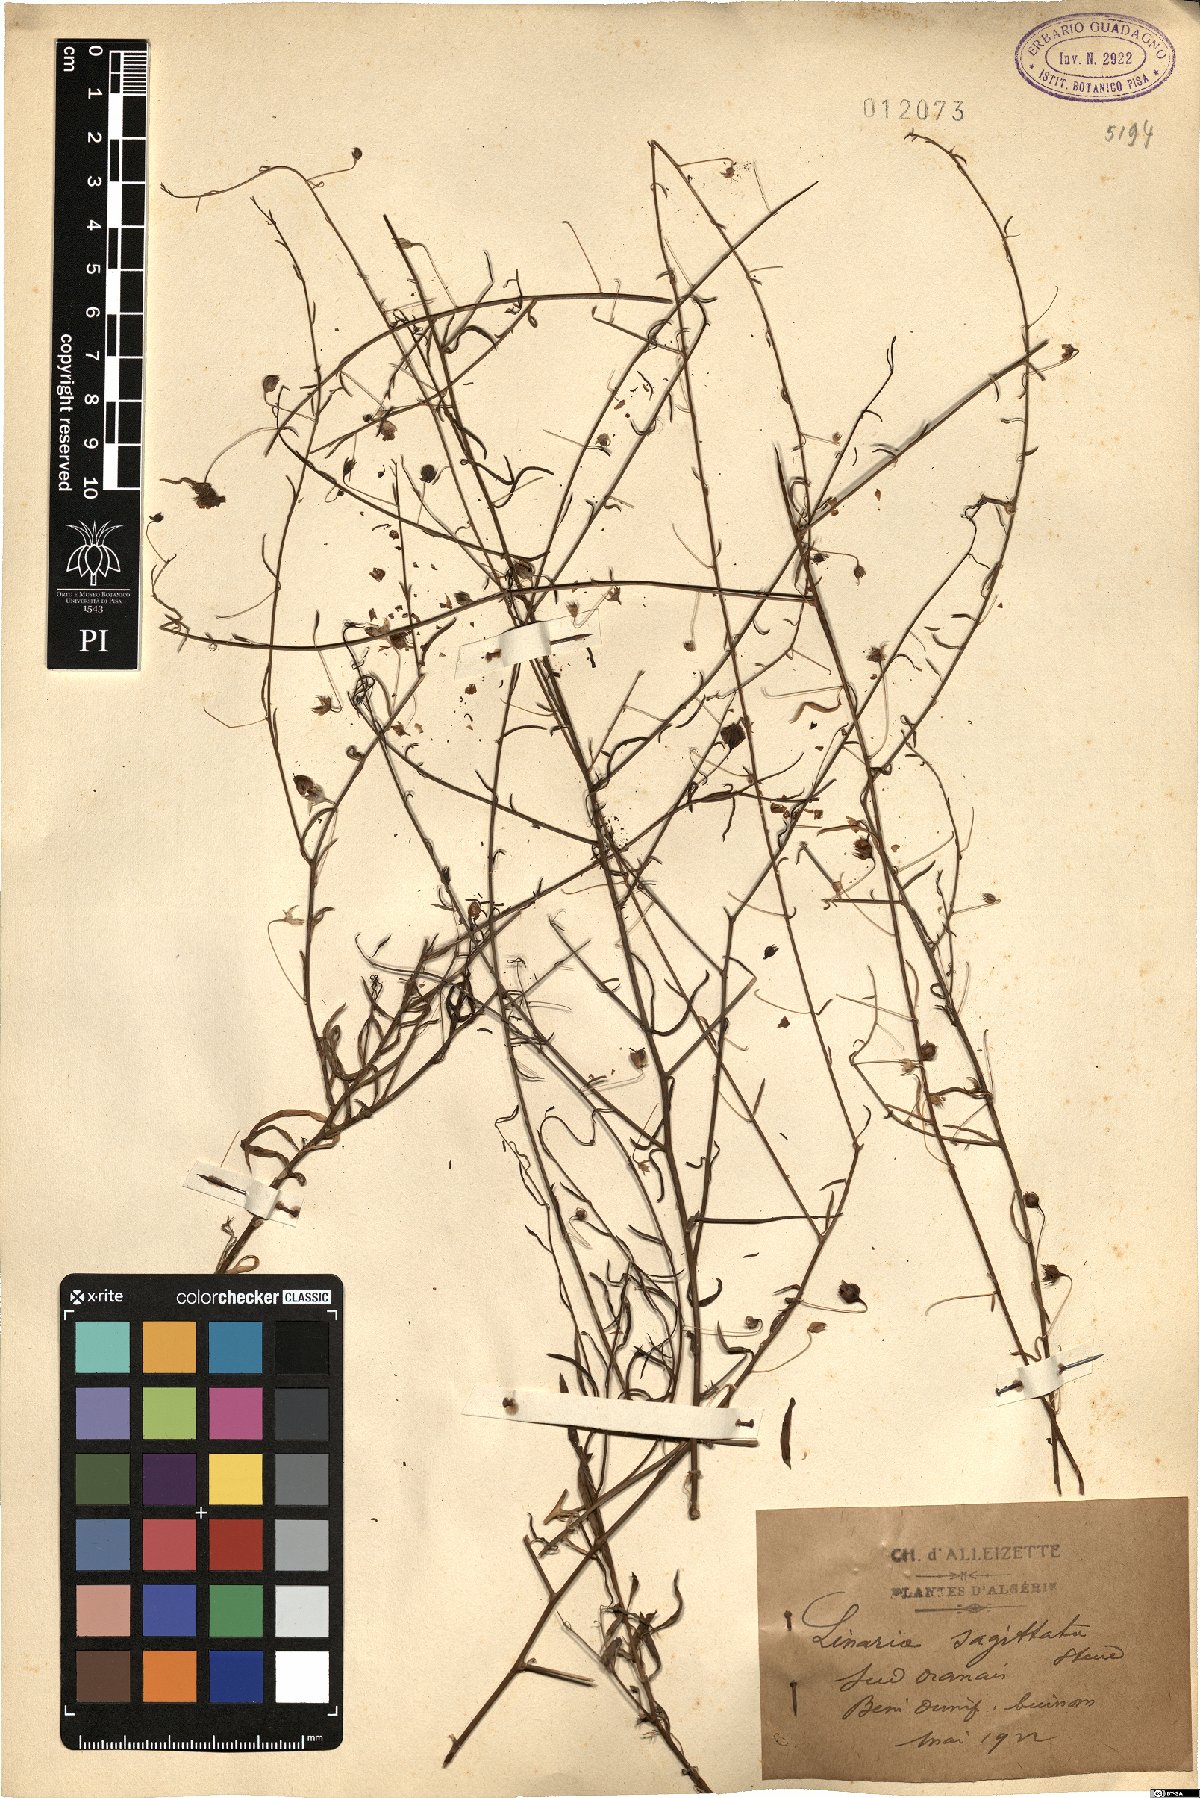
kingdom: Plantae
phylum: Tracheophyta
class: Magnoliopsida
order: Lamiales
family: Plantaginaceae
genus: Nanorrhinum
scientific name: Nanorrhinum sagittatum
